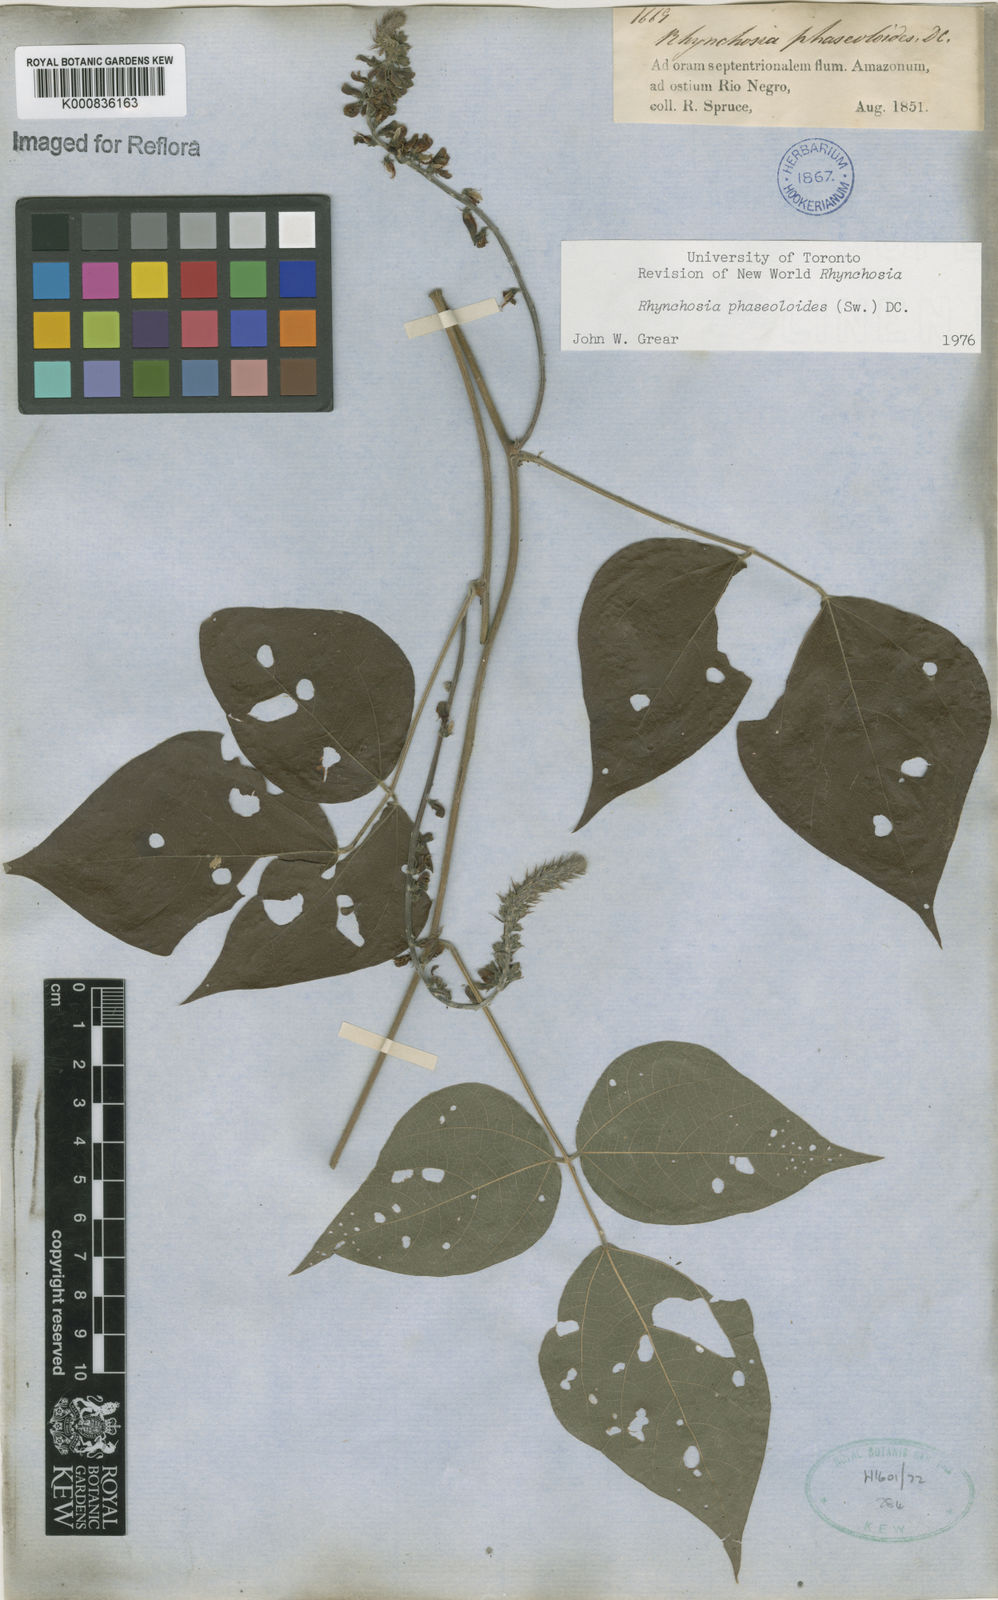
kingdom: Plantae
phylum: Tracheophyta
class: Magnoliopsida
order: Fabales
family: Fabaceae
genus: Rhynchosia
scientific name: Rhynchosia phaseoloides
